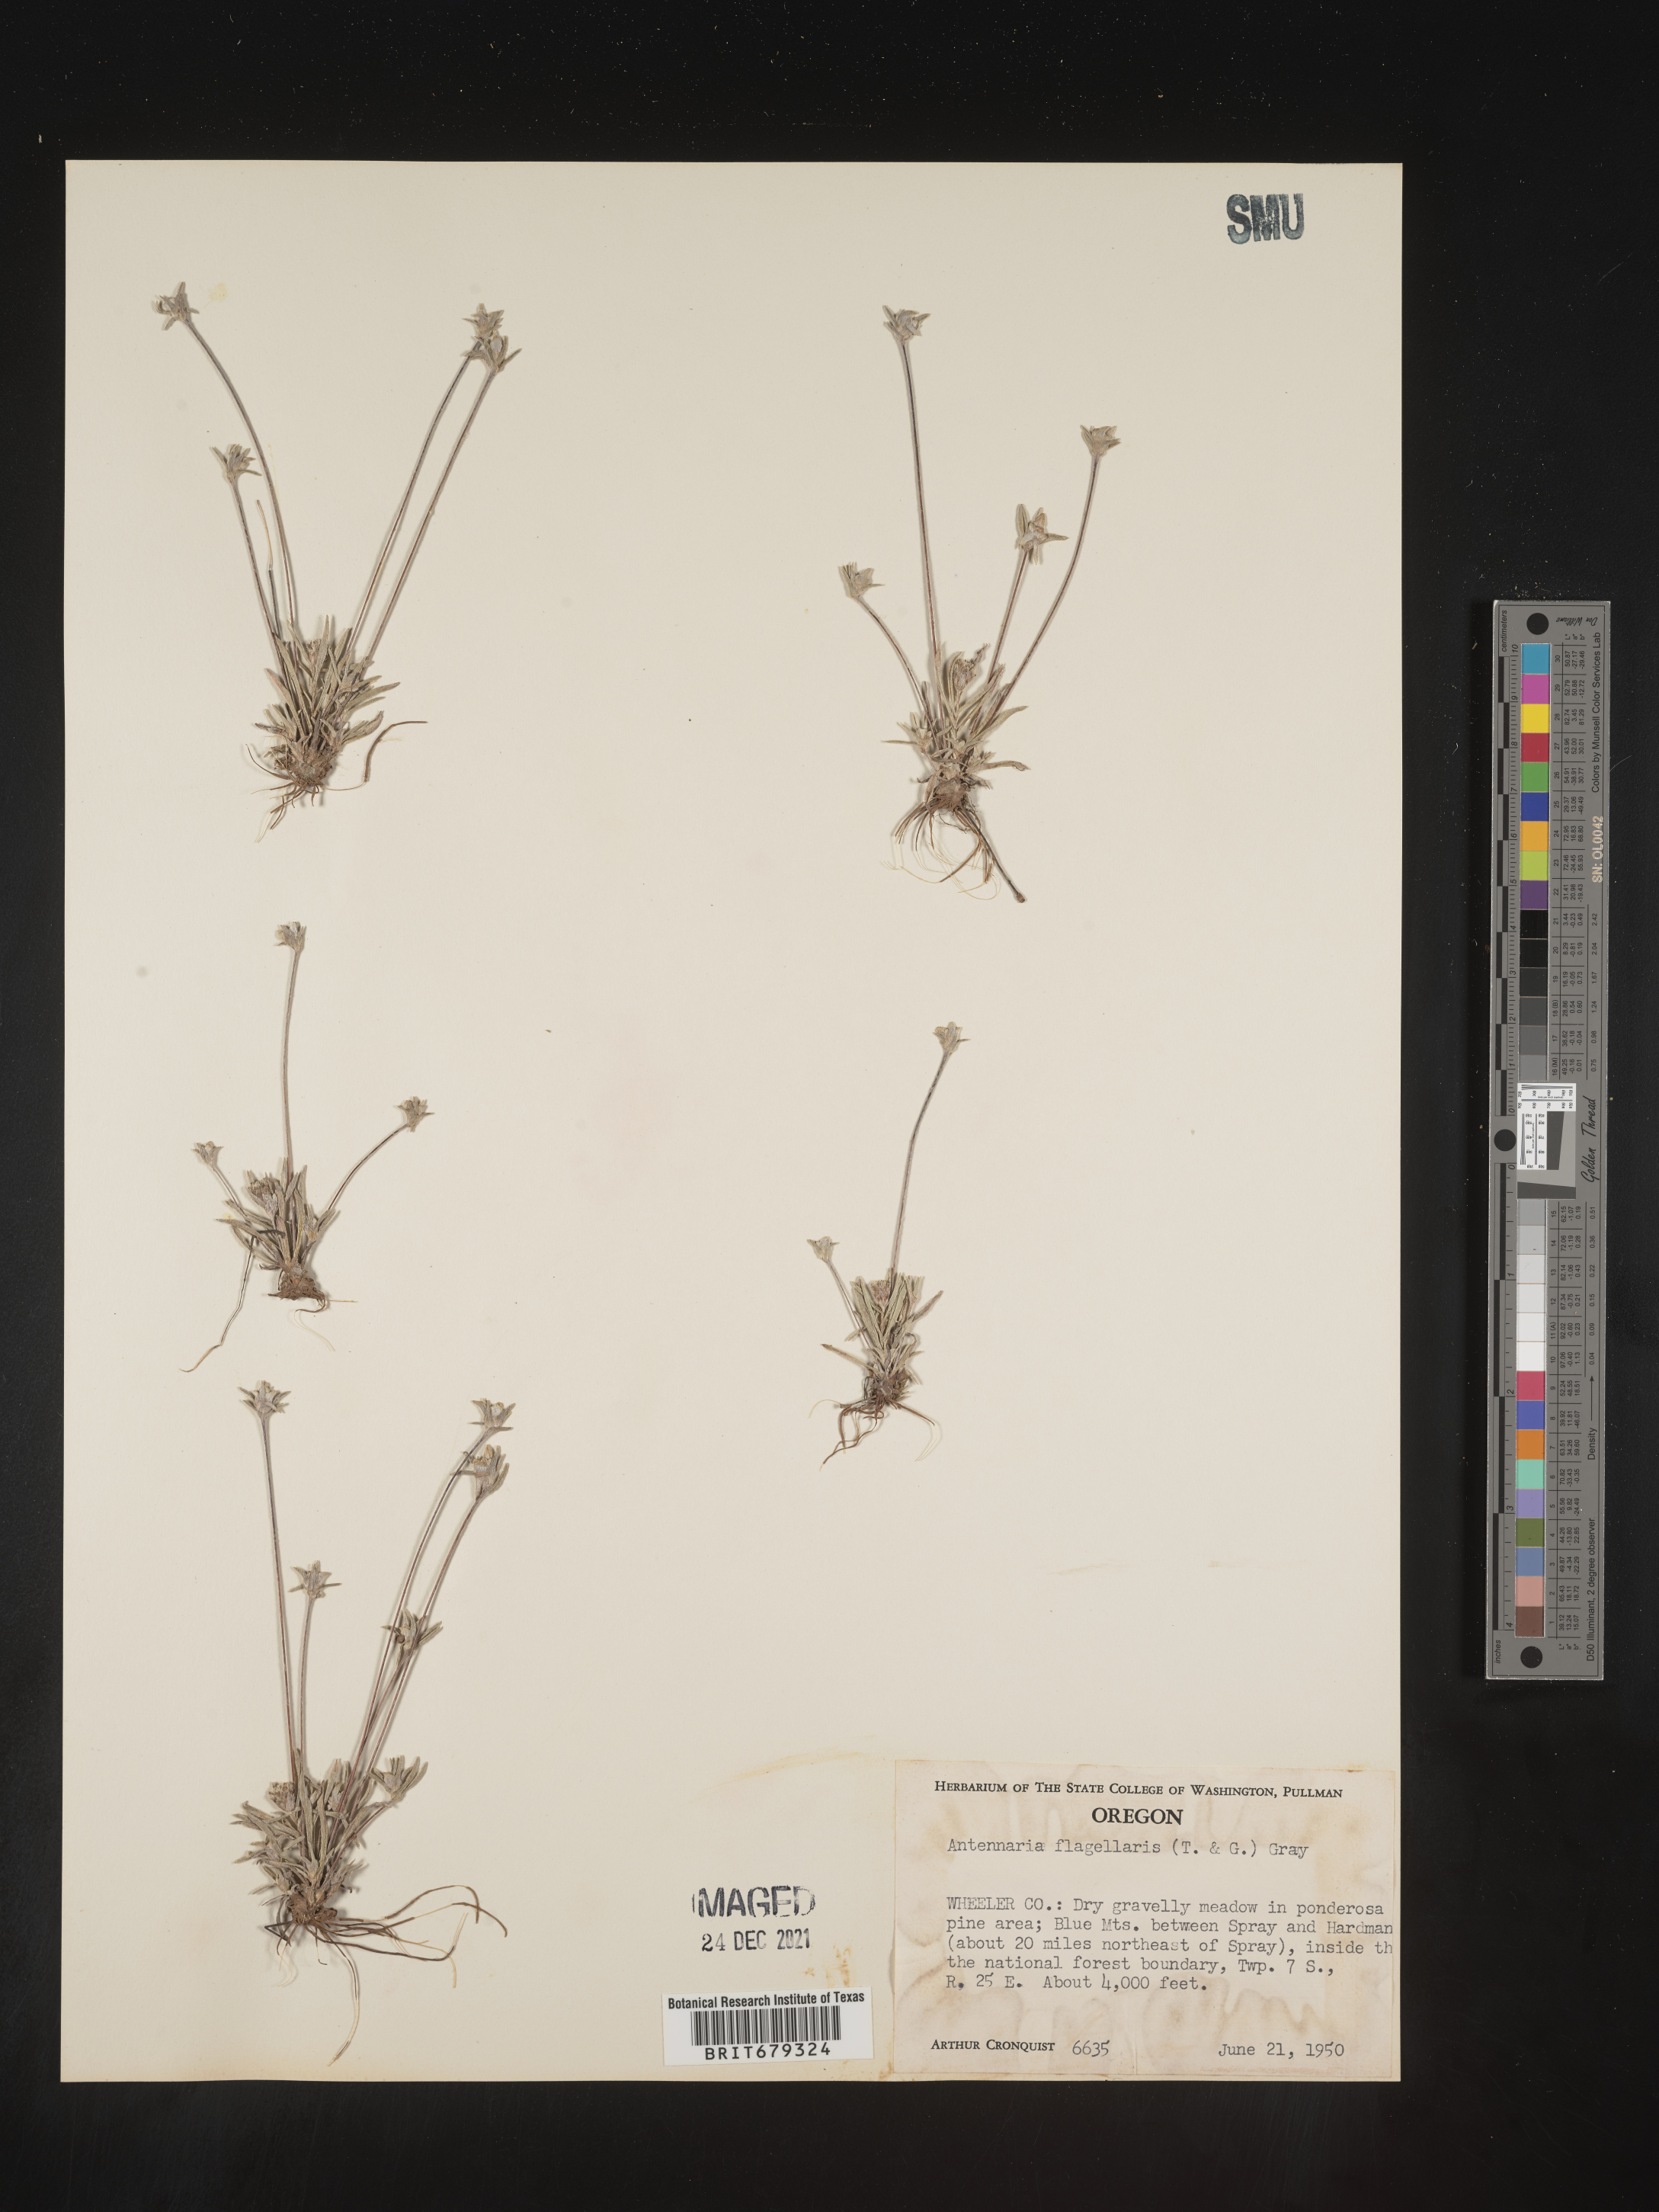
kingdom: Plantae
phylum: Tracheophyta
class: Magnoliopsida
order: Asterales
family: Asteraceae
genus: Antennaria
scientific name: Antennaria flagellaris
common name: Whip pussytoes
